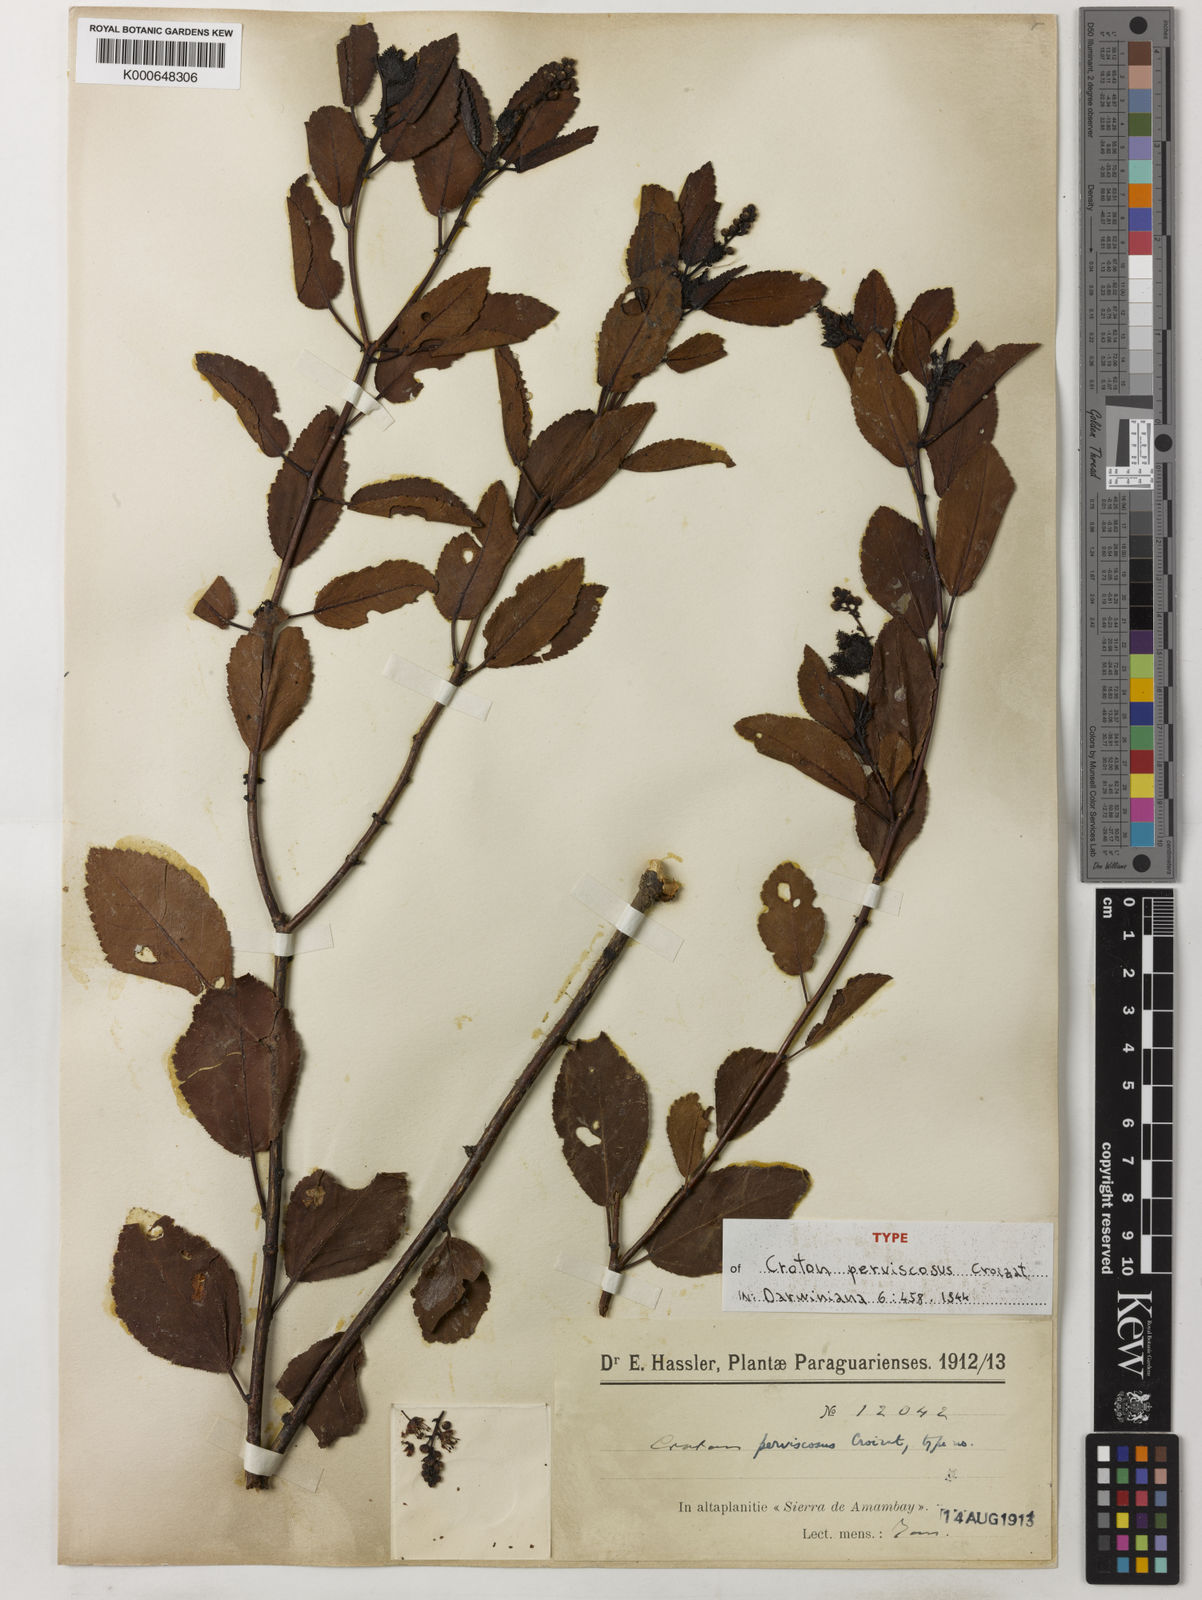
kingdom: Plantae
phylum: Tracheophyta
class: Magnoliopsida
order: Malpighiales
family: Euphorbiaceae
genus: Croton
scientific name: Croton perviscosus
